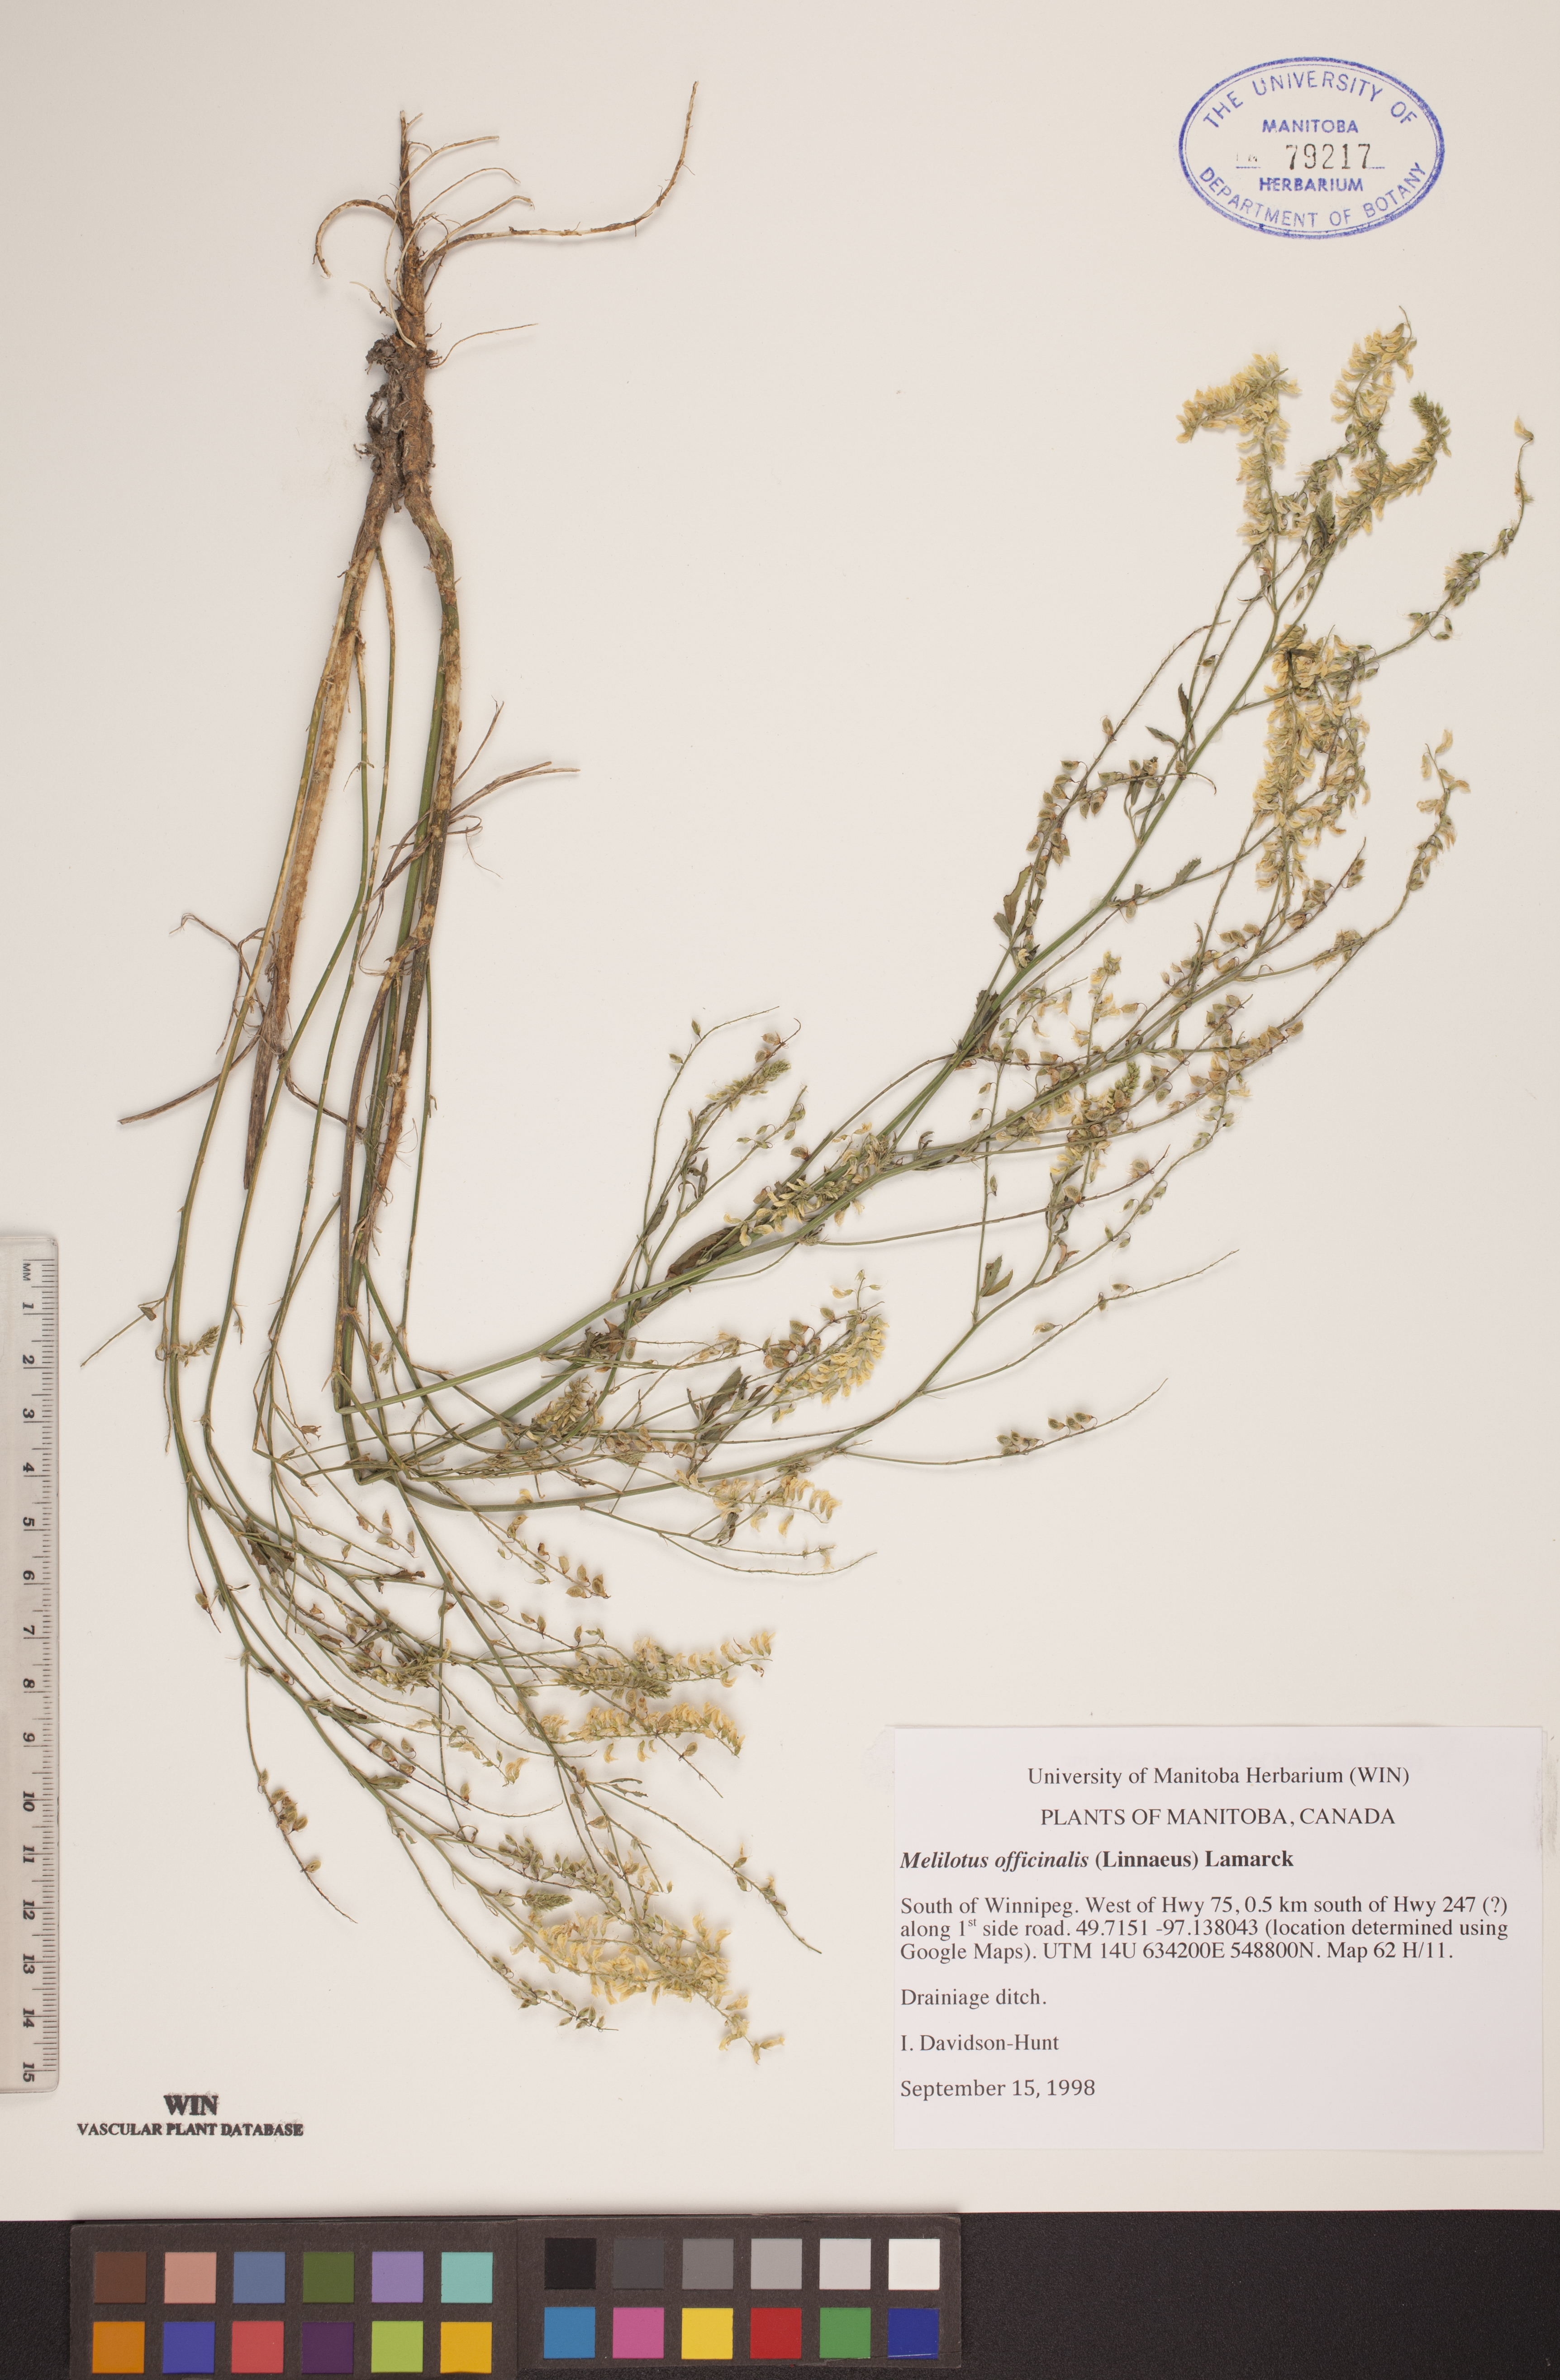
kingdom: Plantae
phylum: Tracheophyta
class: Magnoliopsida
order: Fabales
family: Fabaceae
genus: Melilotus
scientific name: Melilotus officinalis
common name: Sweetclover
